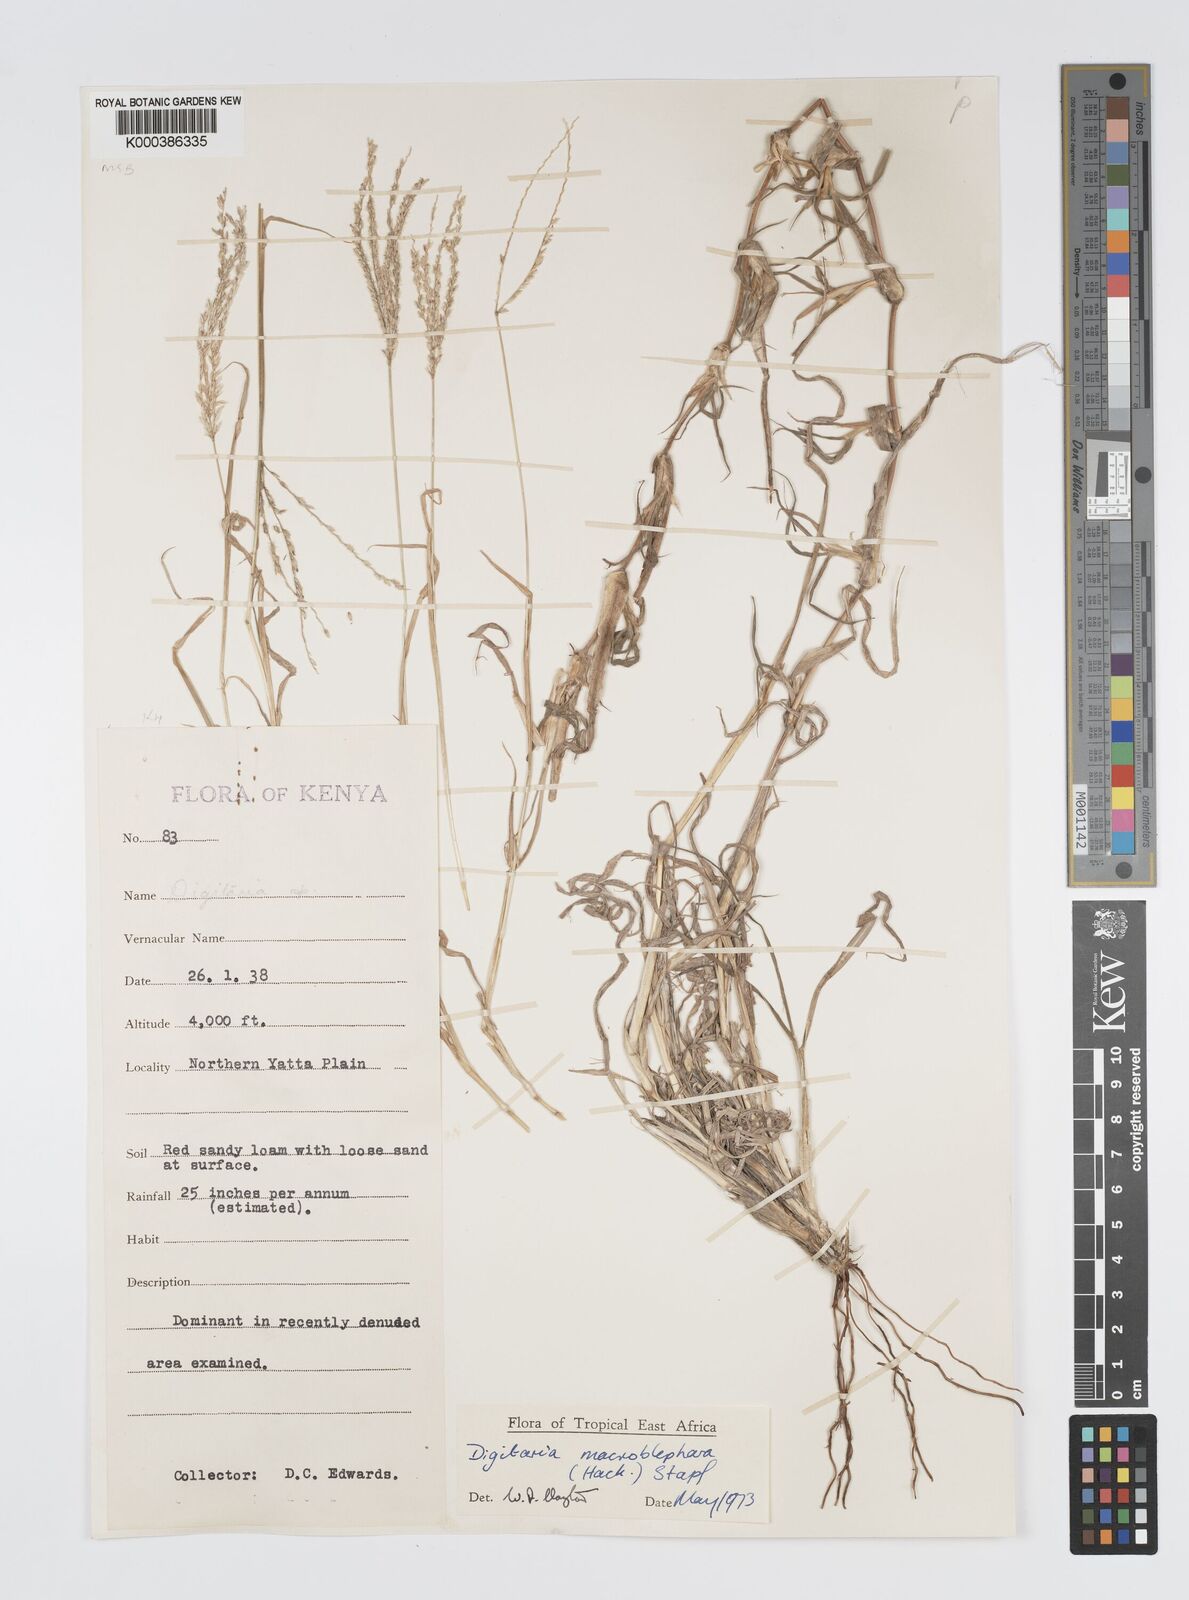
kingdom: Plantae
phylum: Tracheophyta
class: Liliopsida
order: Poales
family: Poaceae
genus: Digitaria
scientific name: Digitaria macroblephara
